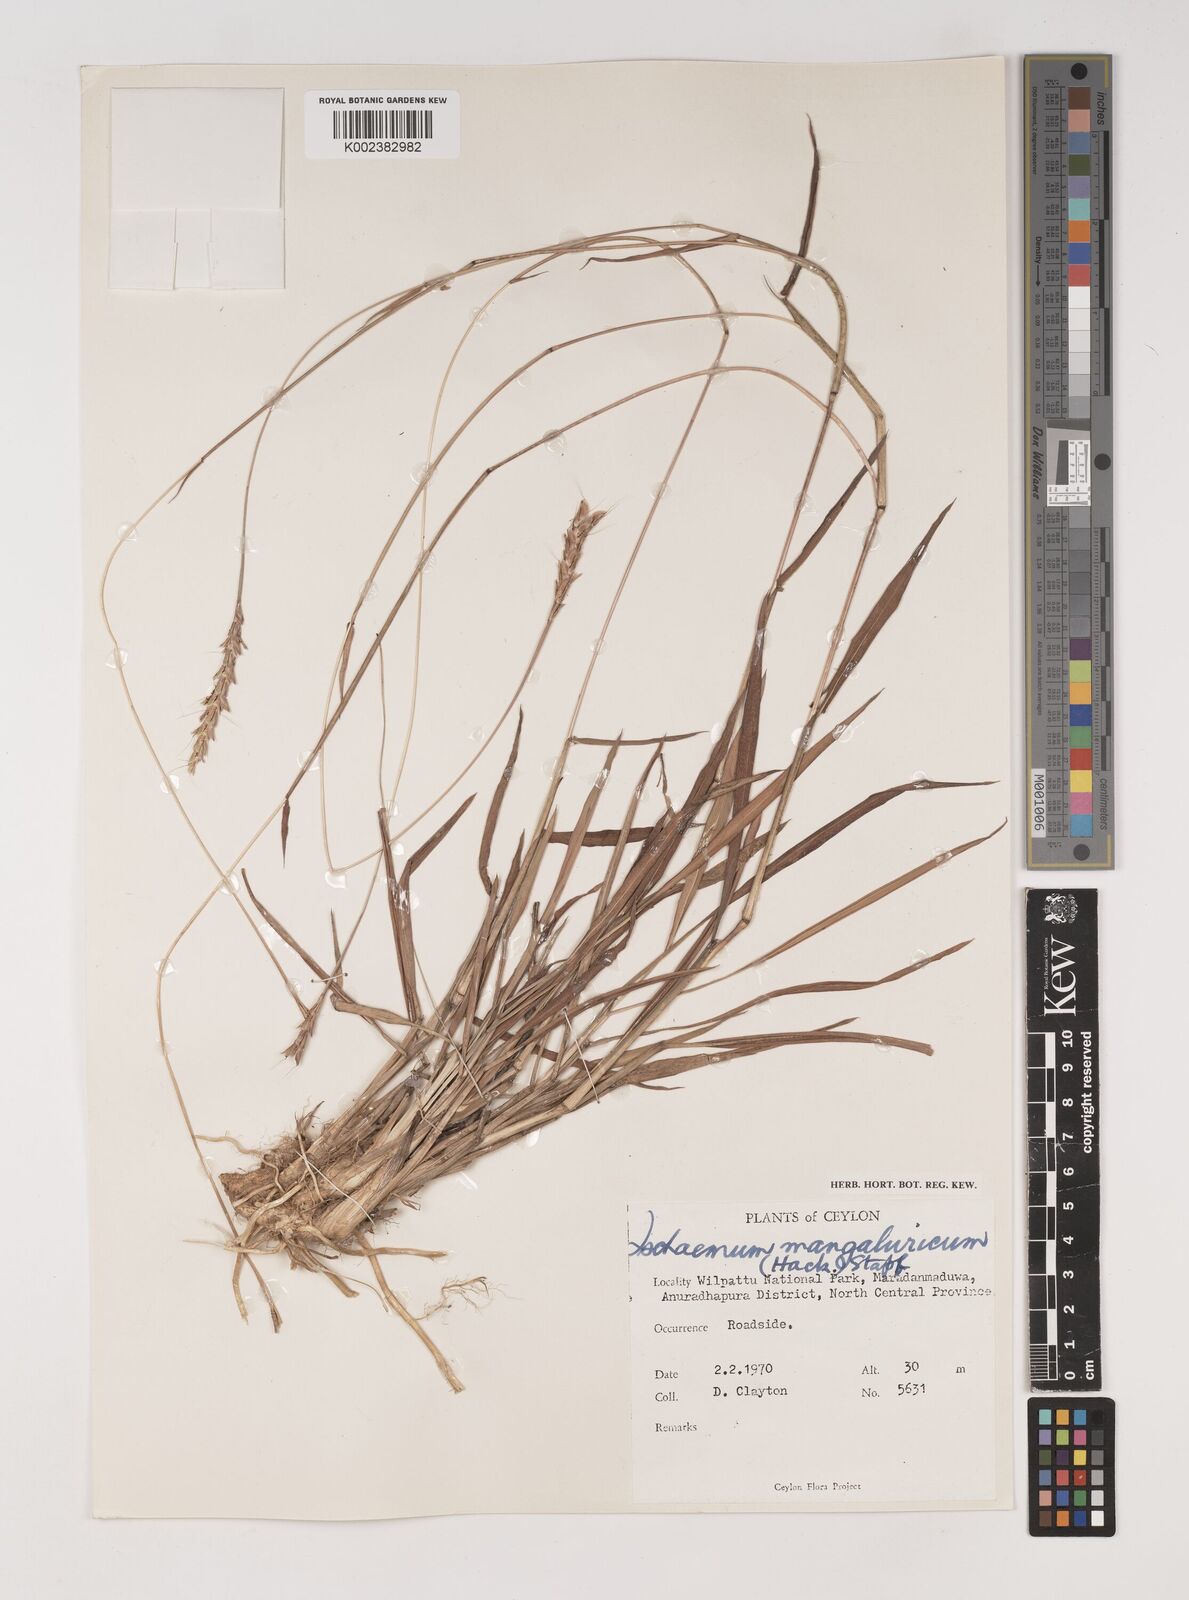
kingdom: Plantae
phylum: Tracheophyta
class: Liliopsida
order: Poales
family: Poaceae
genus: Ischaemum
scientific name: Ischaemum barbatum
